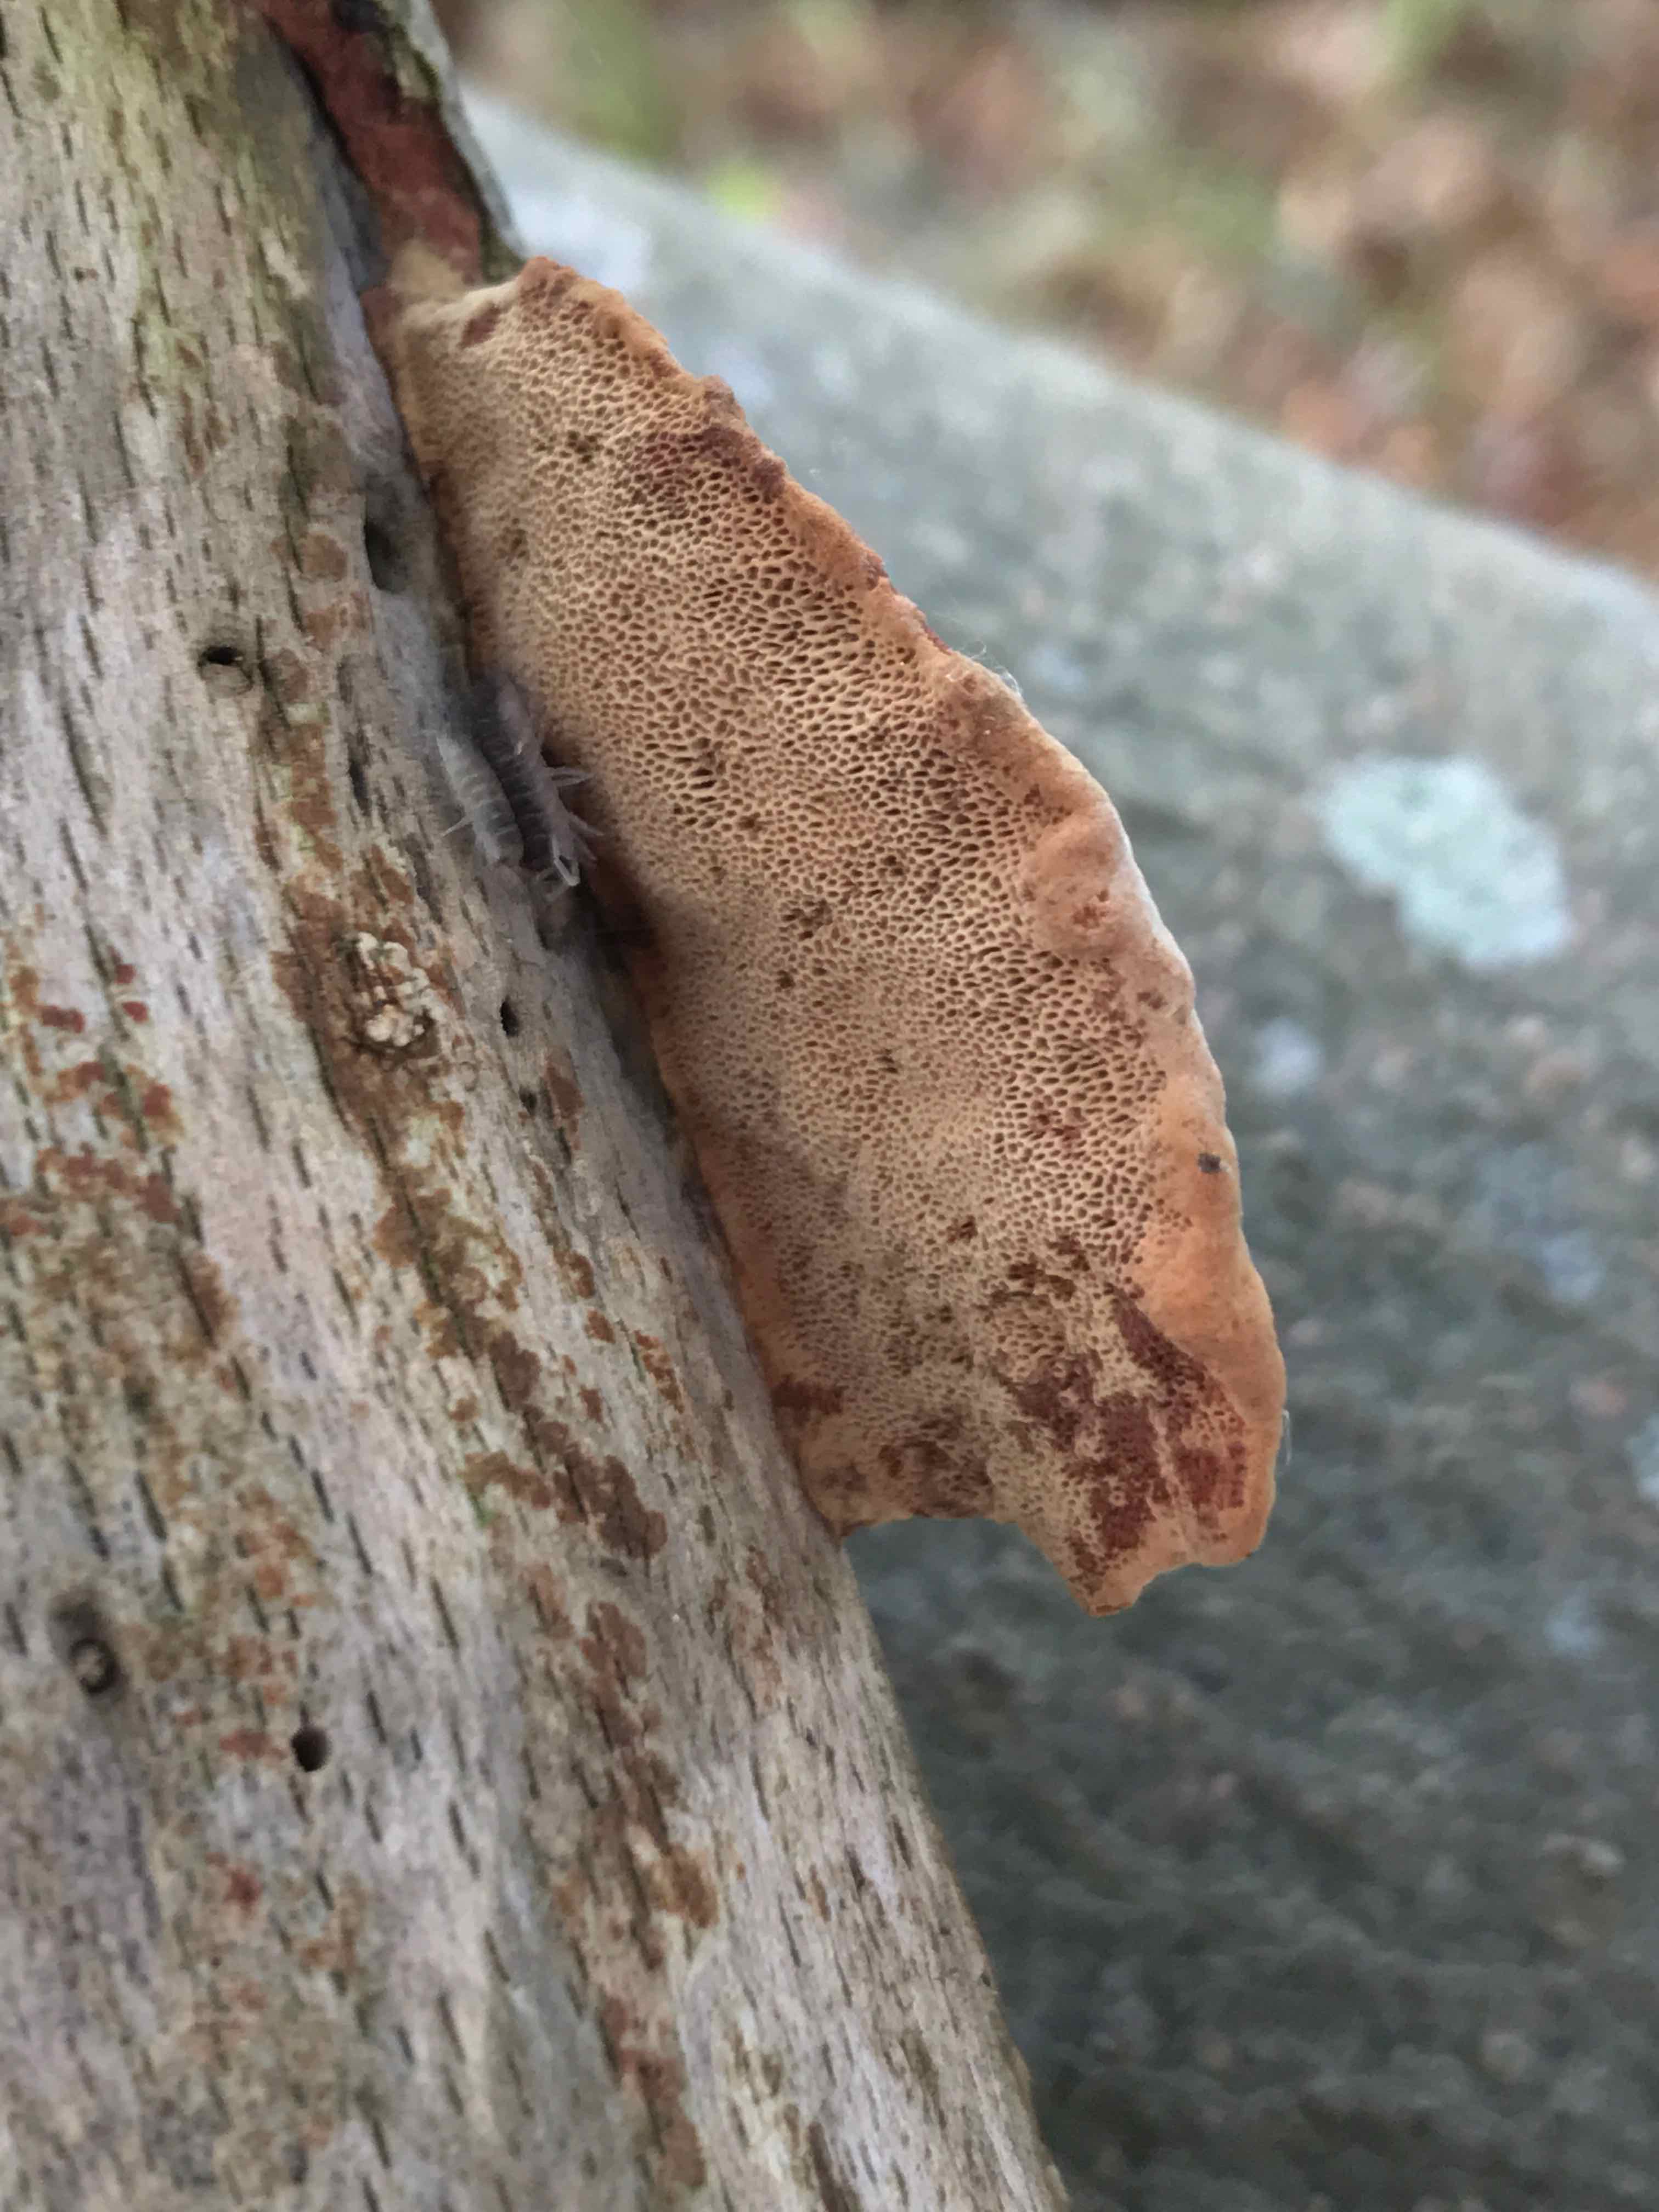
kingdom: Fungi
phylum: Basidiomycota
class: Agaricomycetes
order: Polyporales
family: Phanerochaetaceae
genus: Hapalopilus
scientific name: Hapalopilus rutilans
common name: rødlig okkerporesvamp
